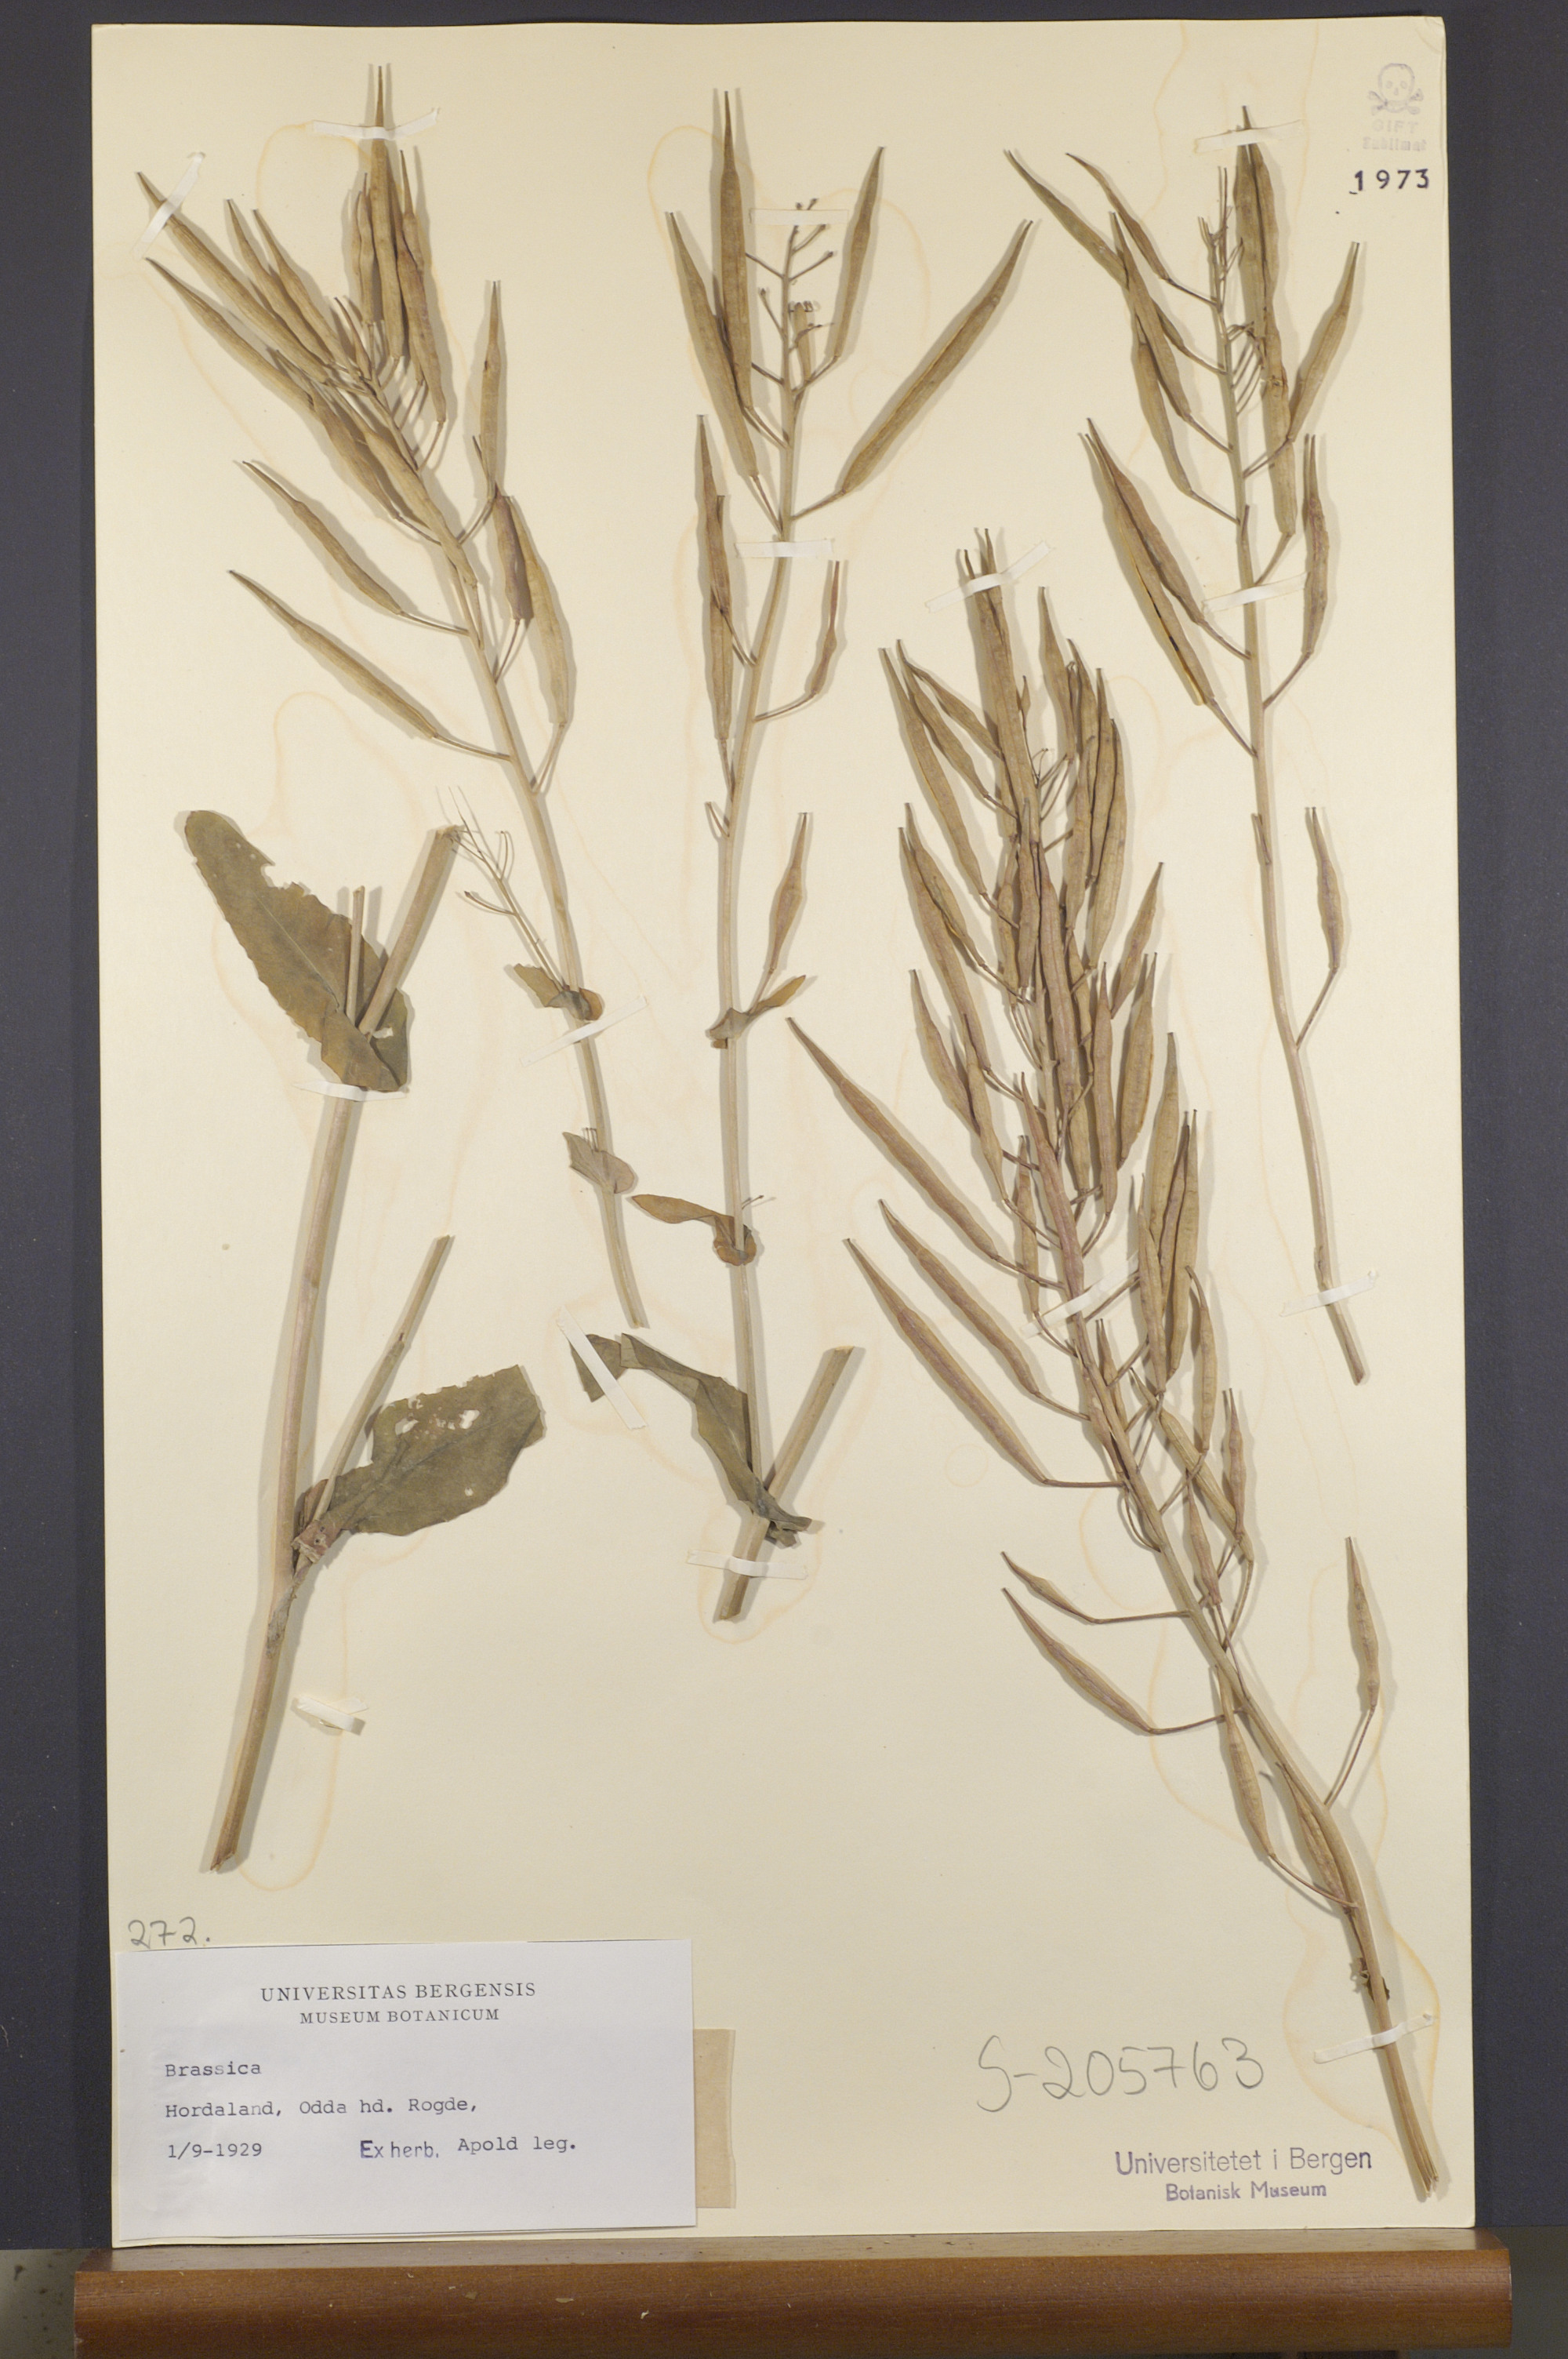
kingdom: Plantae
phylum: Tracheophyta
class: Magnoliopsida
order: Brassicales
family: Brassicaceae
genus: Brassica
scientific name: Brassica
